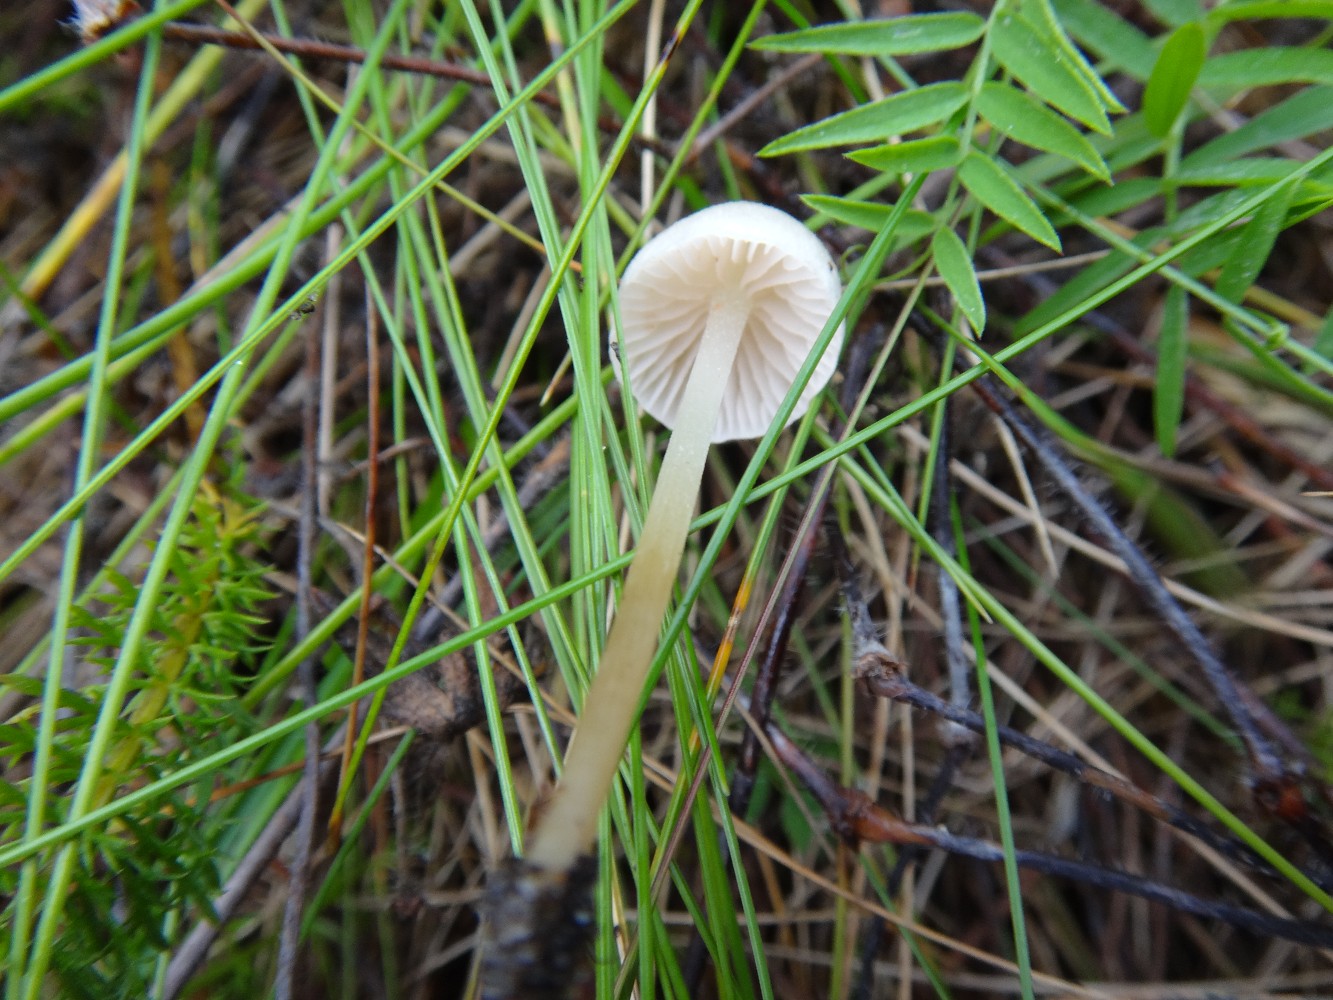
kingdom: Fungi
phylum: Basidiomycota
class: Agaricomycetes
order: Agaricales
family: Entolomataceae
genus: Entoloma
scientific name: Entoloma sericellum
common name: silkehvid rødblad
